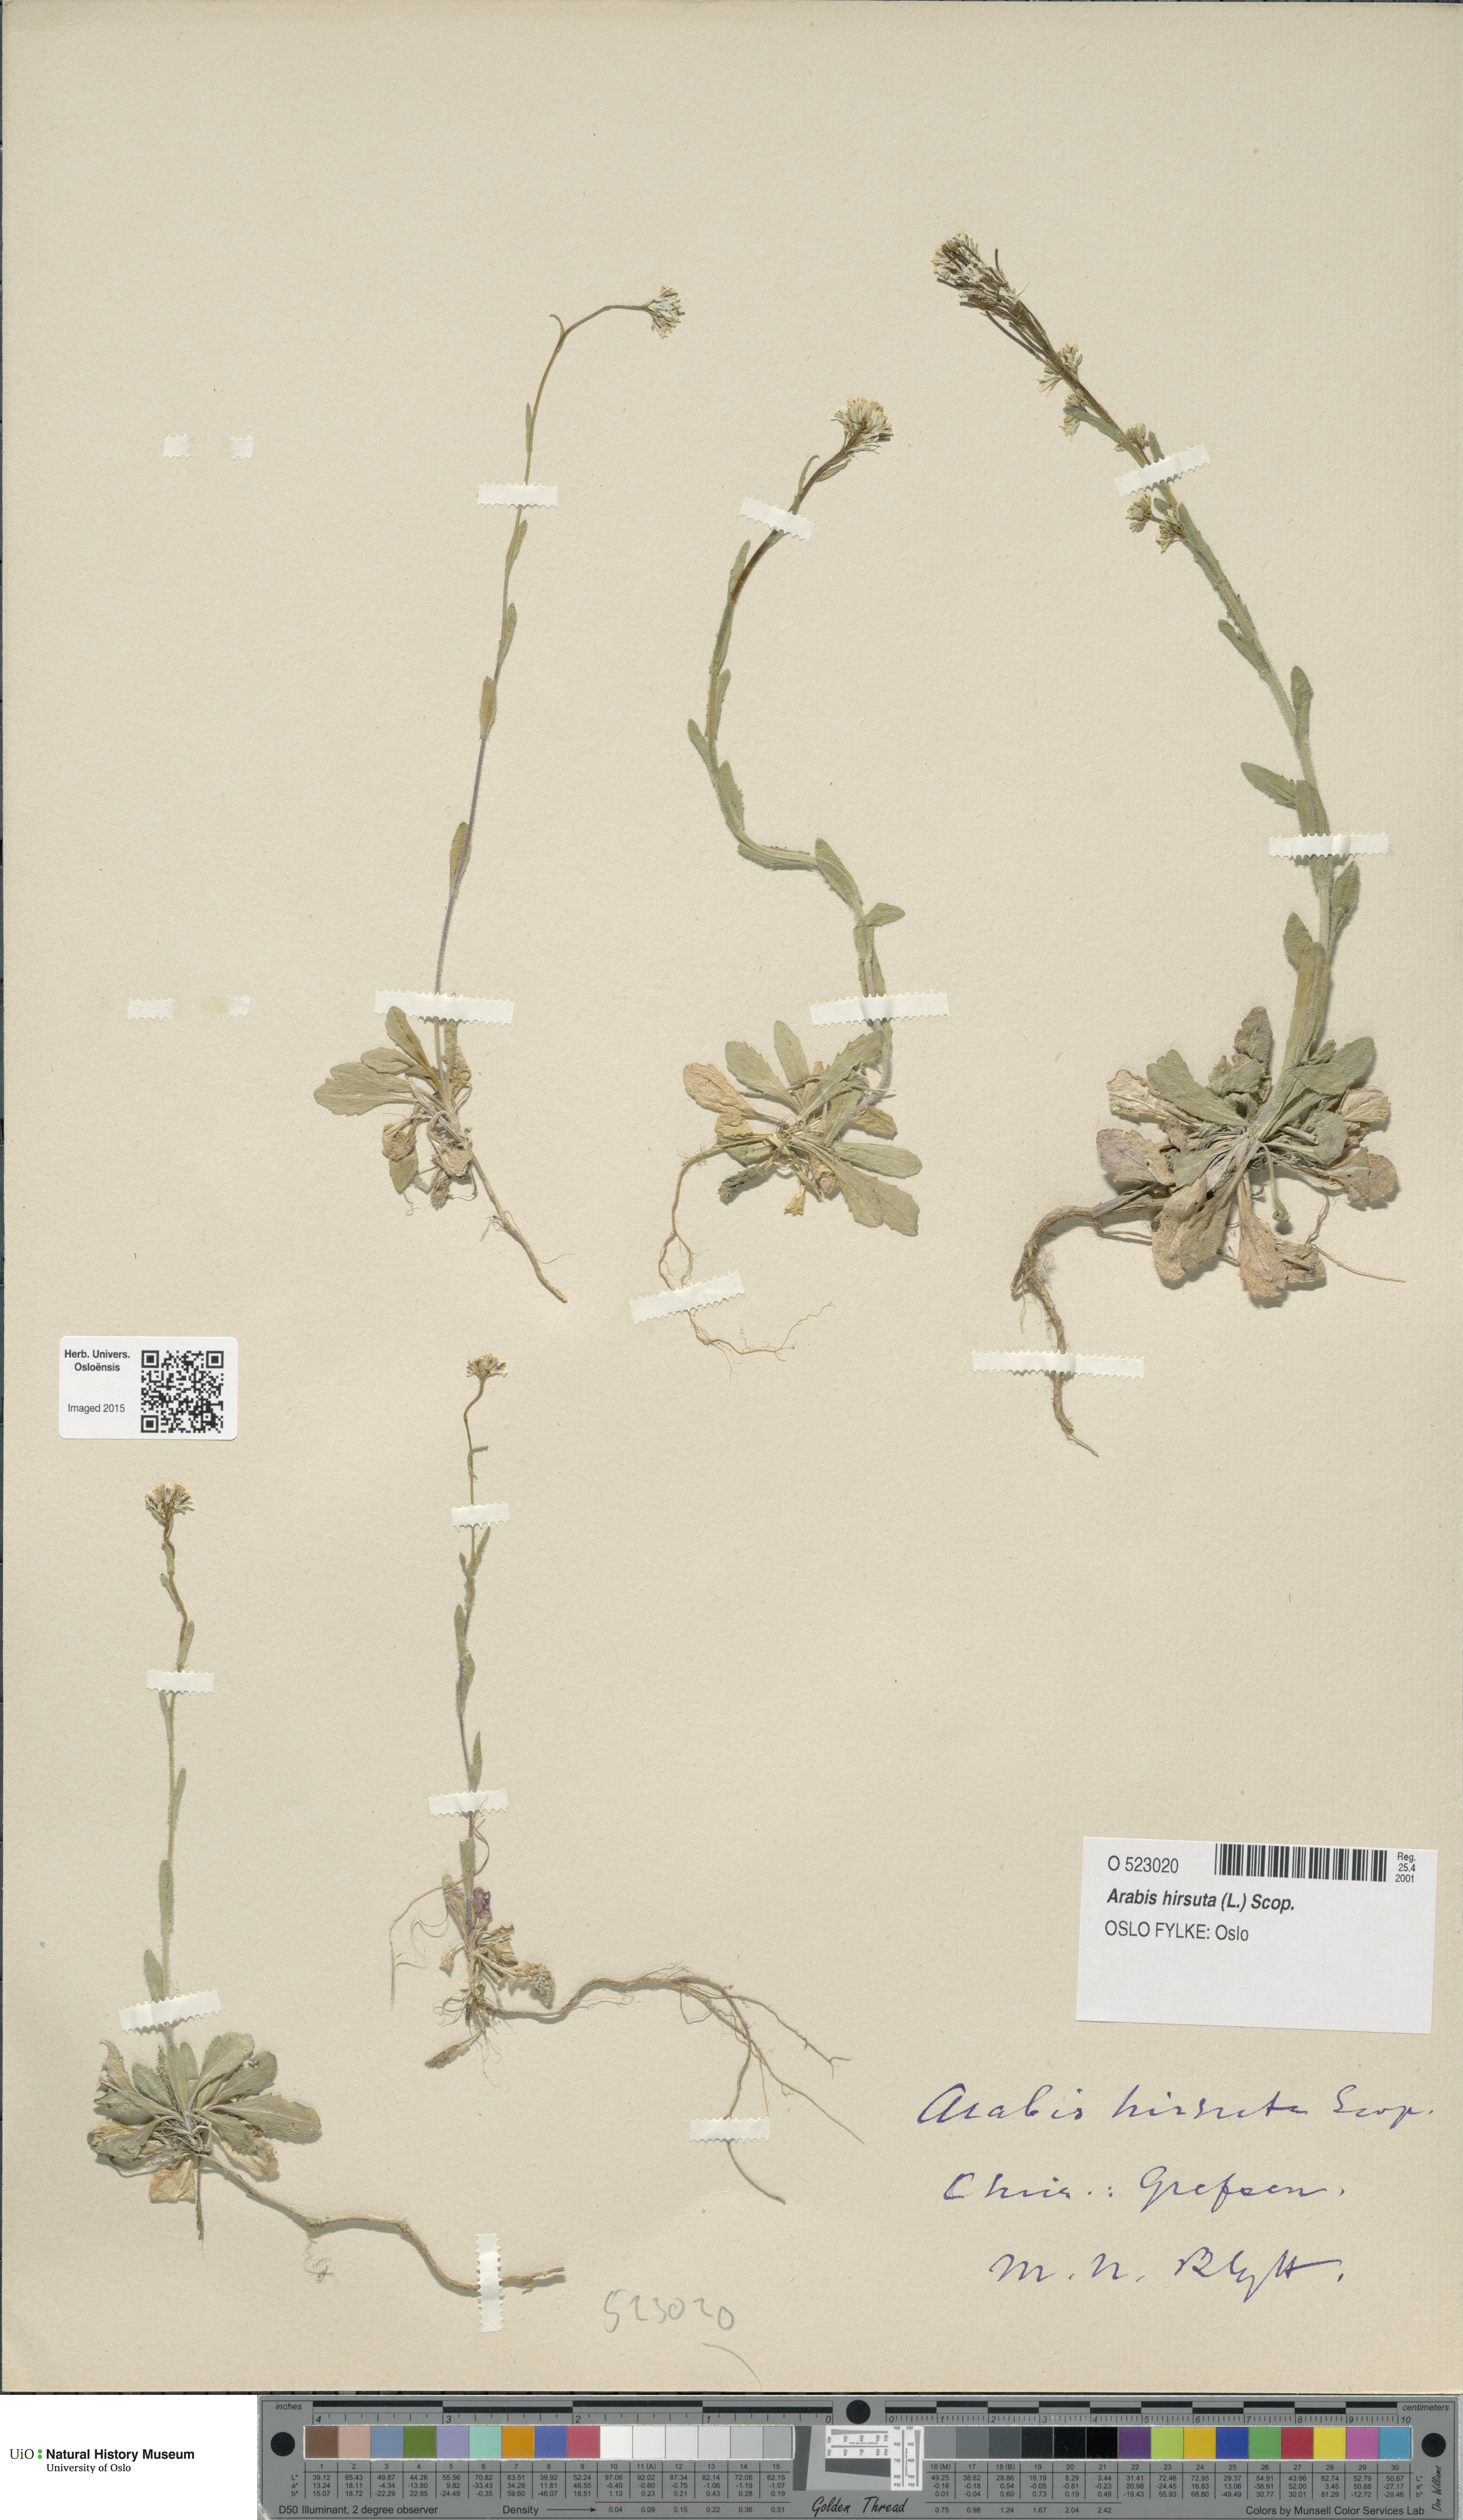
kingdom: Plantae
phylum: Tracheophyta
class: Magnoliopsida
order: Brassicales
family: Brassicaceae
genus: Arabis
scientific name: Arabis hirsuta
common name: Hairy rock-cress
